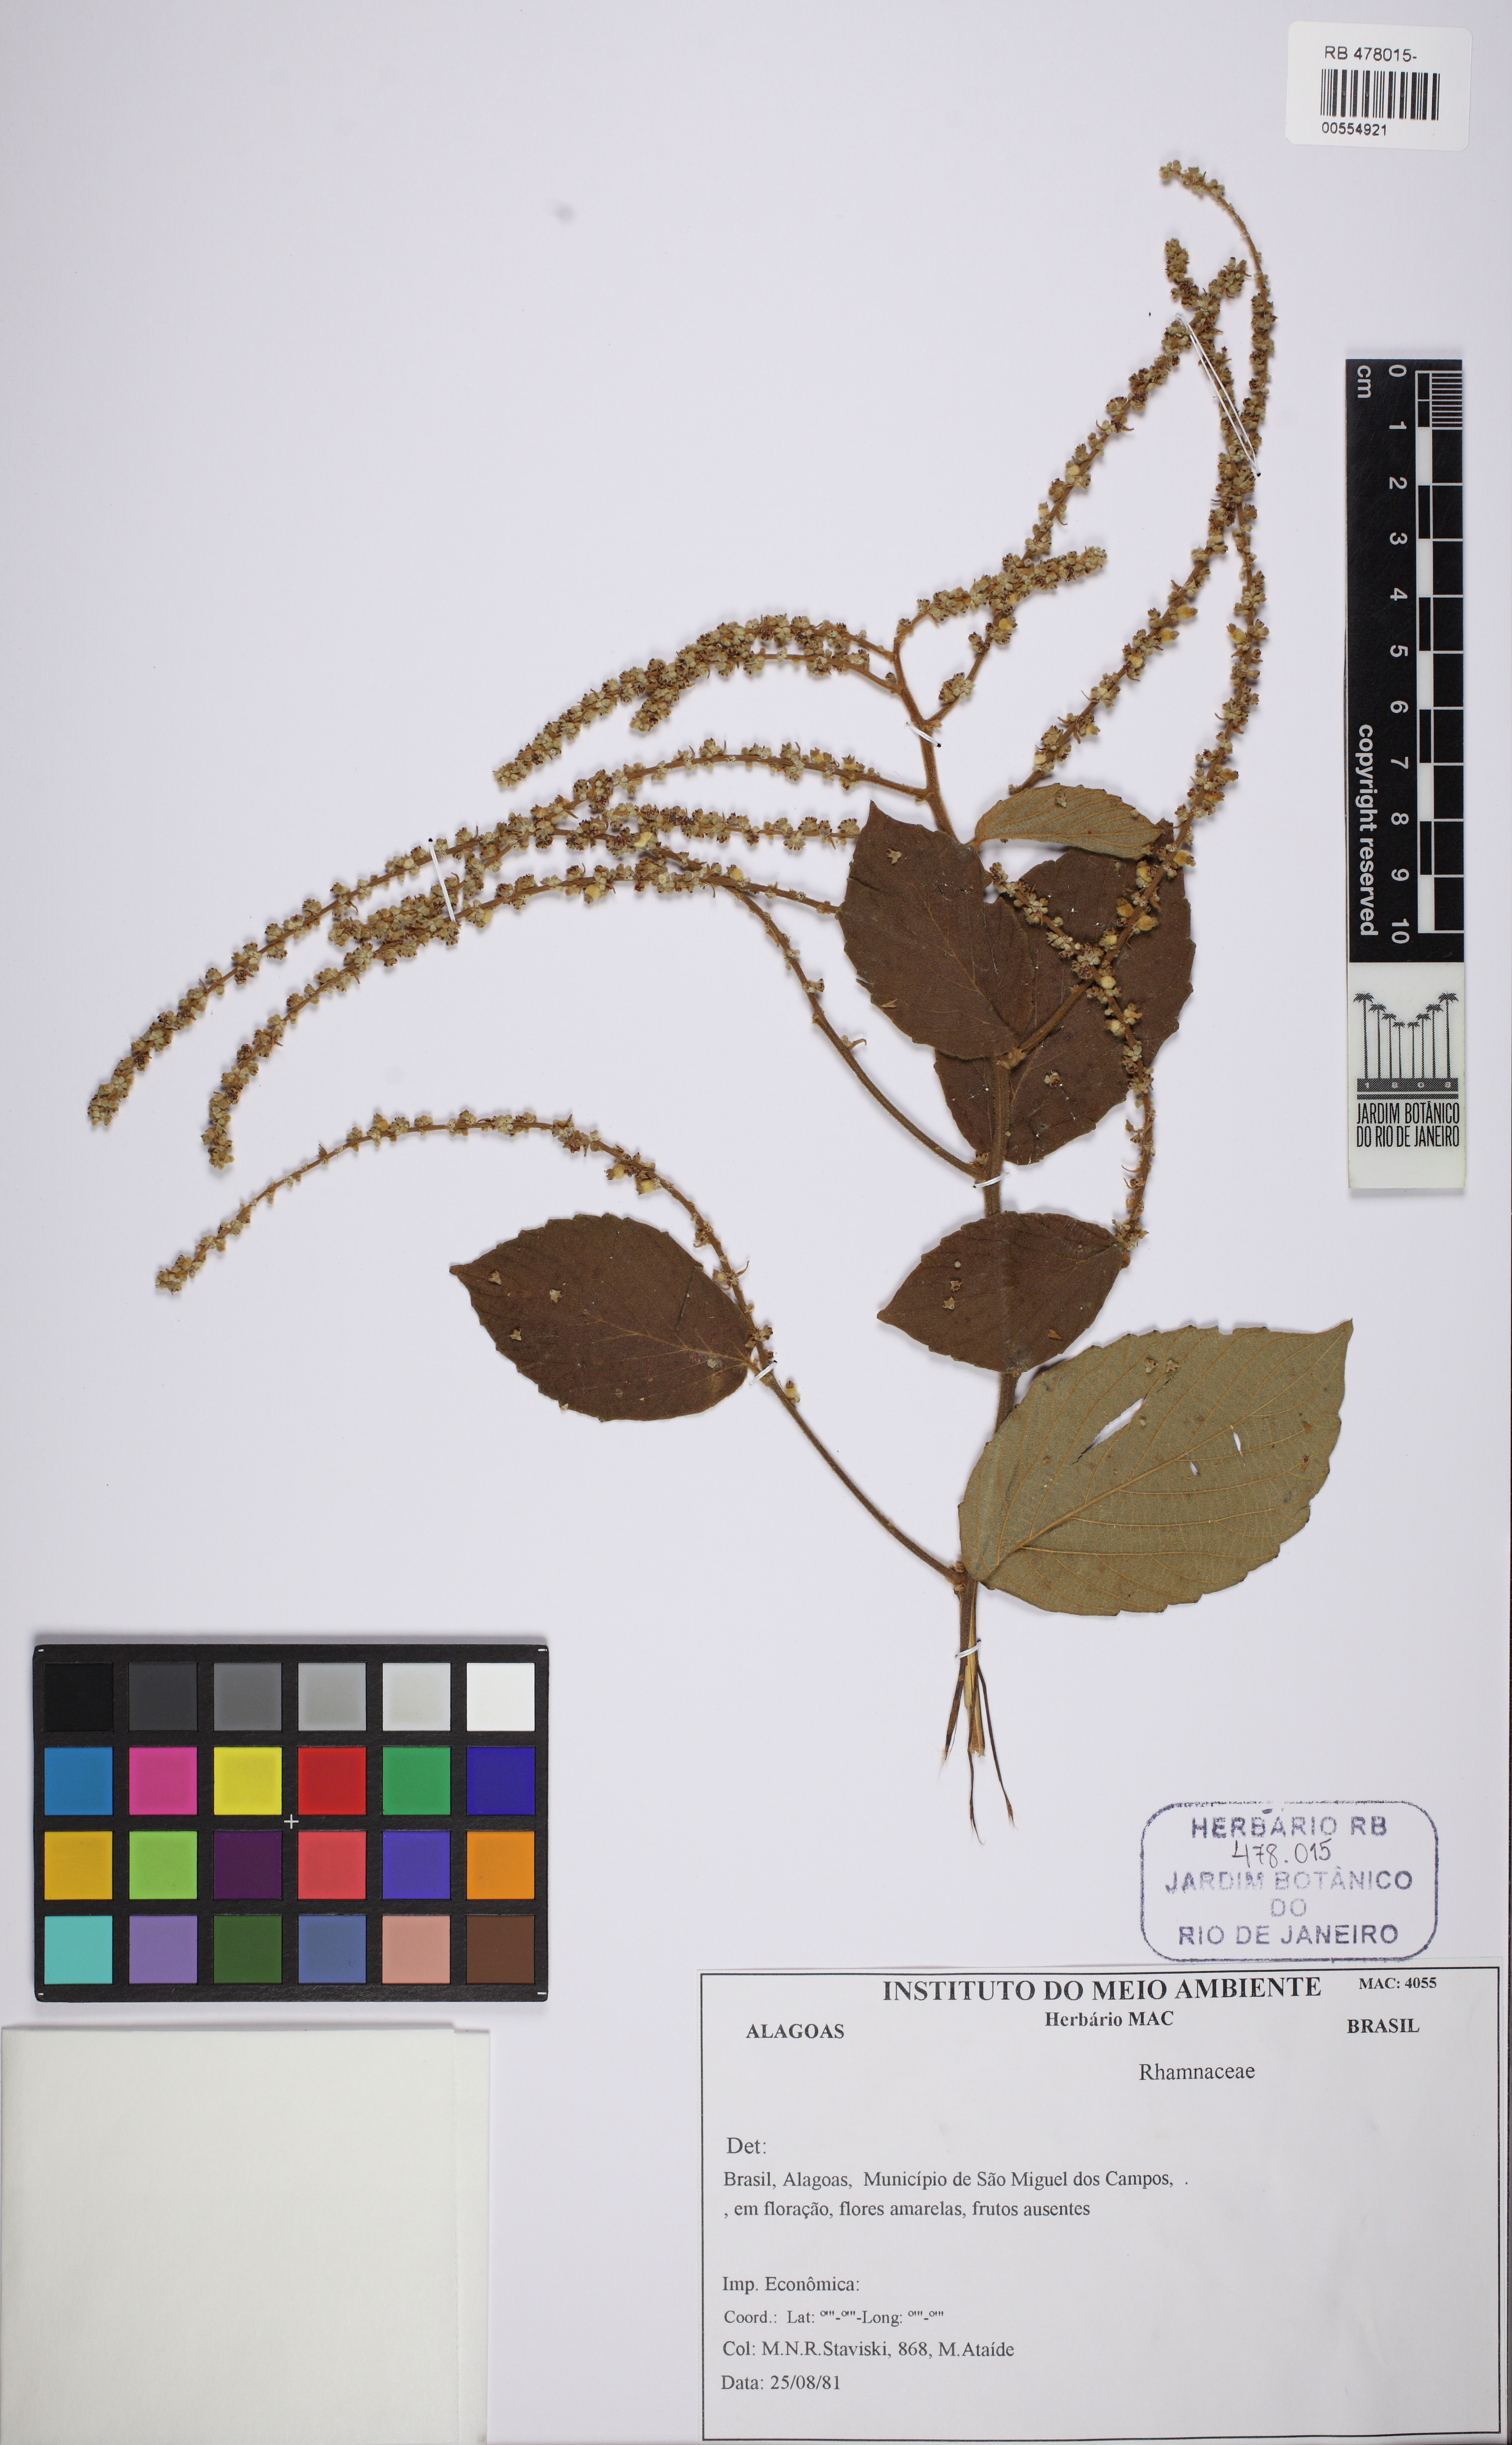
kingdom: Plantae
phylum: Tracheophyta
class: Magnoliopsida
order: Rosales
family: Rhamnaceae
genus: Gouania
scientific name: Gouania
